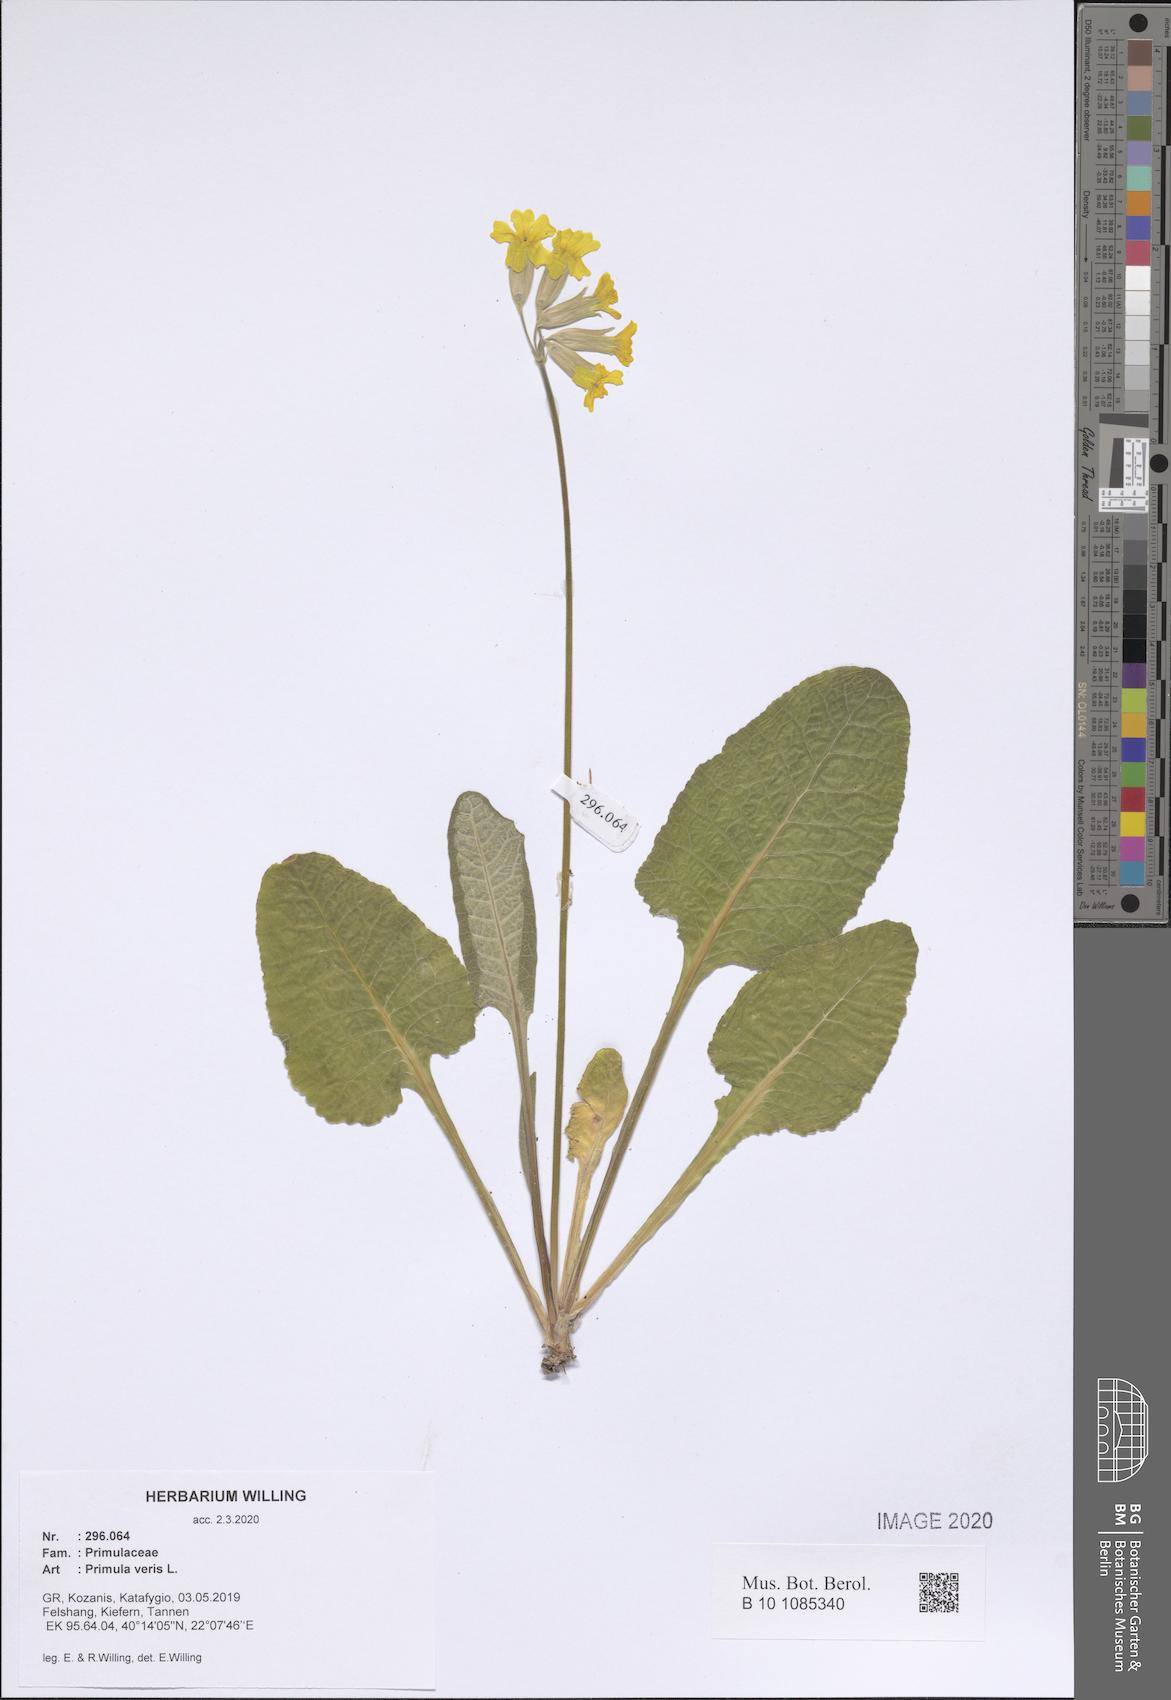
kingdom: Plantae
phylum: Tracheophyta
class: Magnoliopsida
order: Ericales
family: Primulaceae
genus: Primula
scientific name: Primula veris
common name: Cowslip
